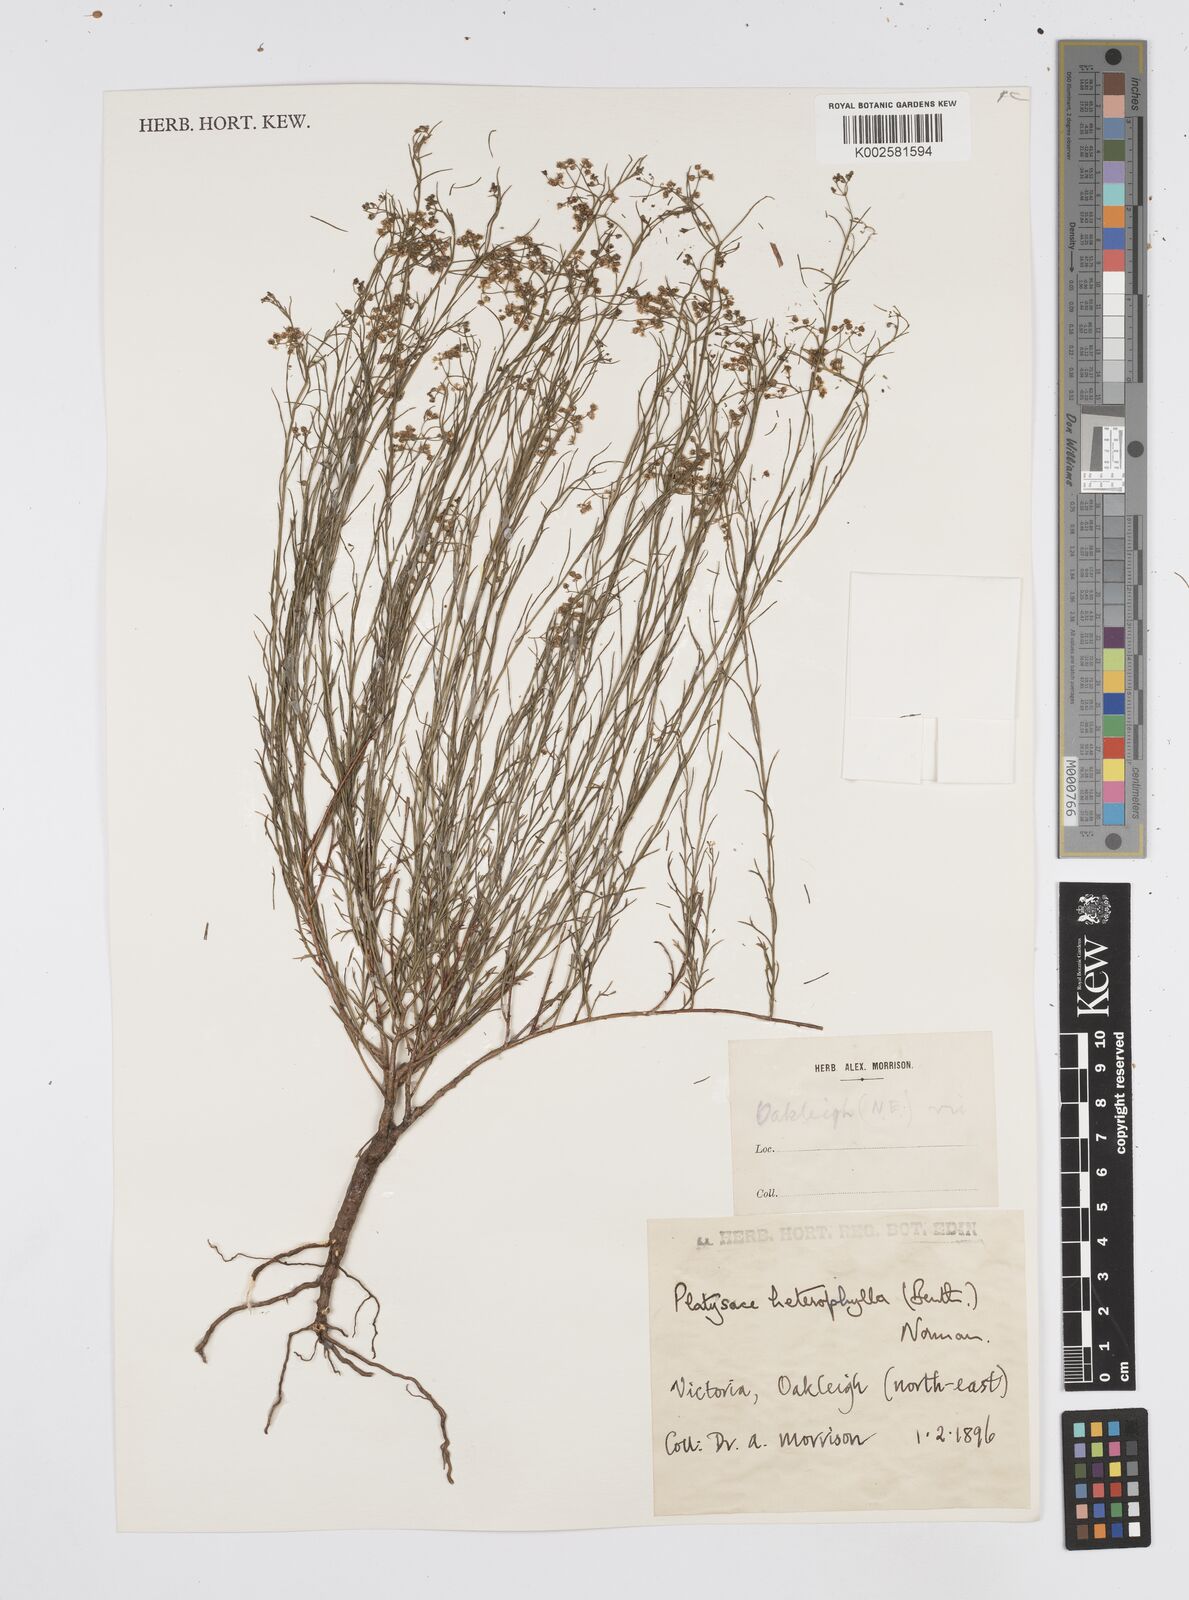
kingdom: Plantae
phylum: Tracheophyta
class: Magnoliopsida
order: Apiales
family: Apiaceae
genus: Platysace
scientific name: Platysace heterophylla
